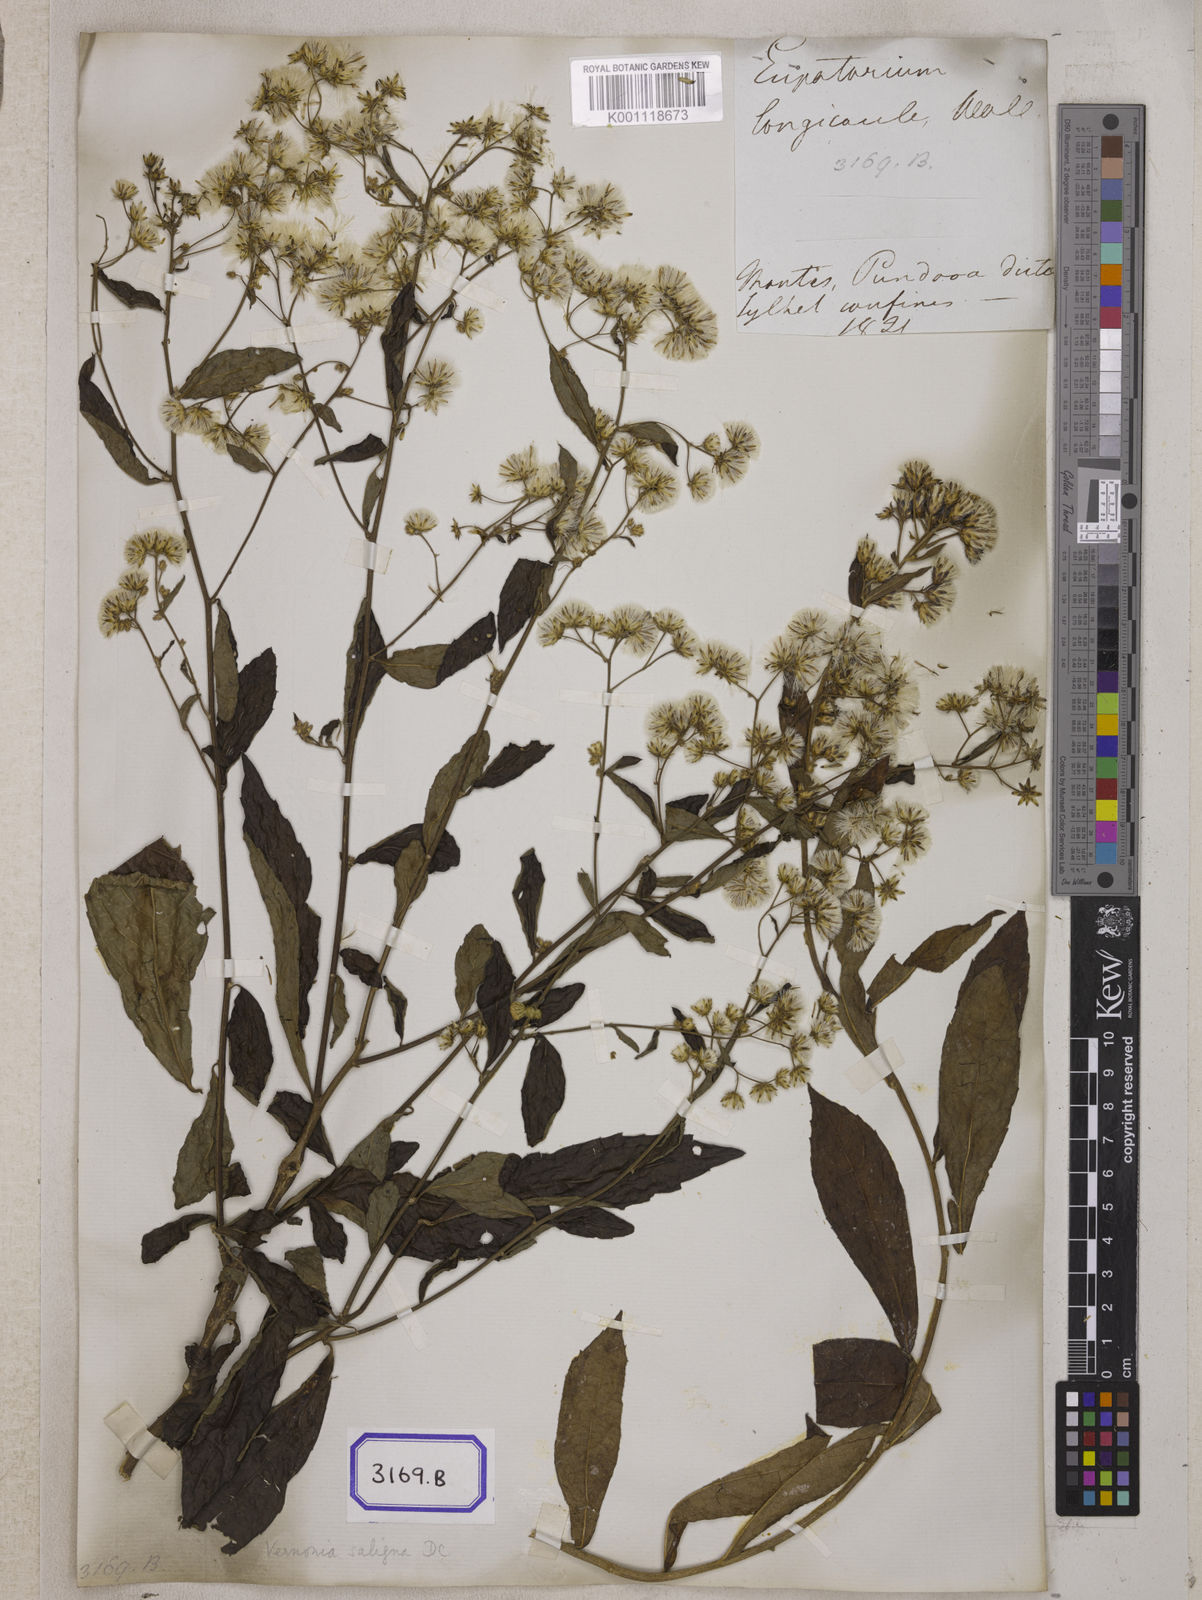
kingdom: Plantae
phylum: Tracheophyta
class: Magnoliopsida
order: Asterales
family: Asteraceae
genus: Acilepis
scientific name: Acilepis saligna
